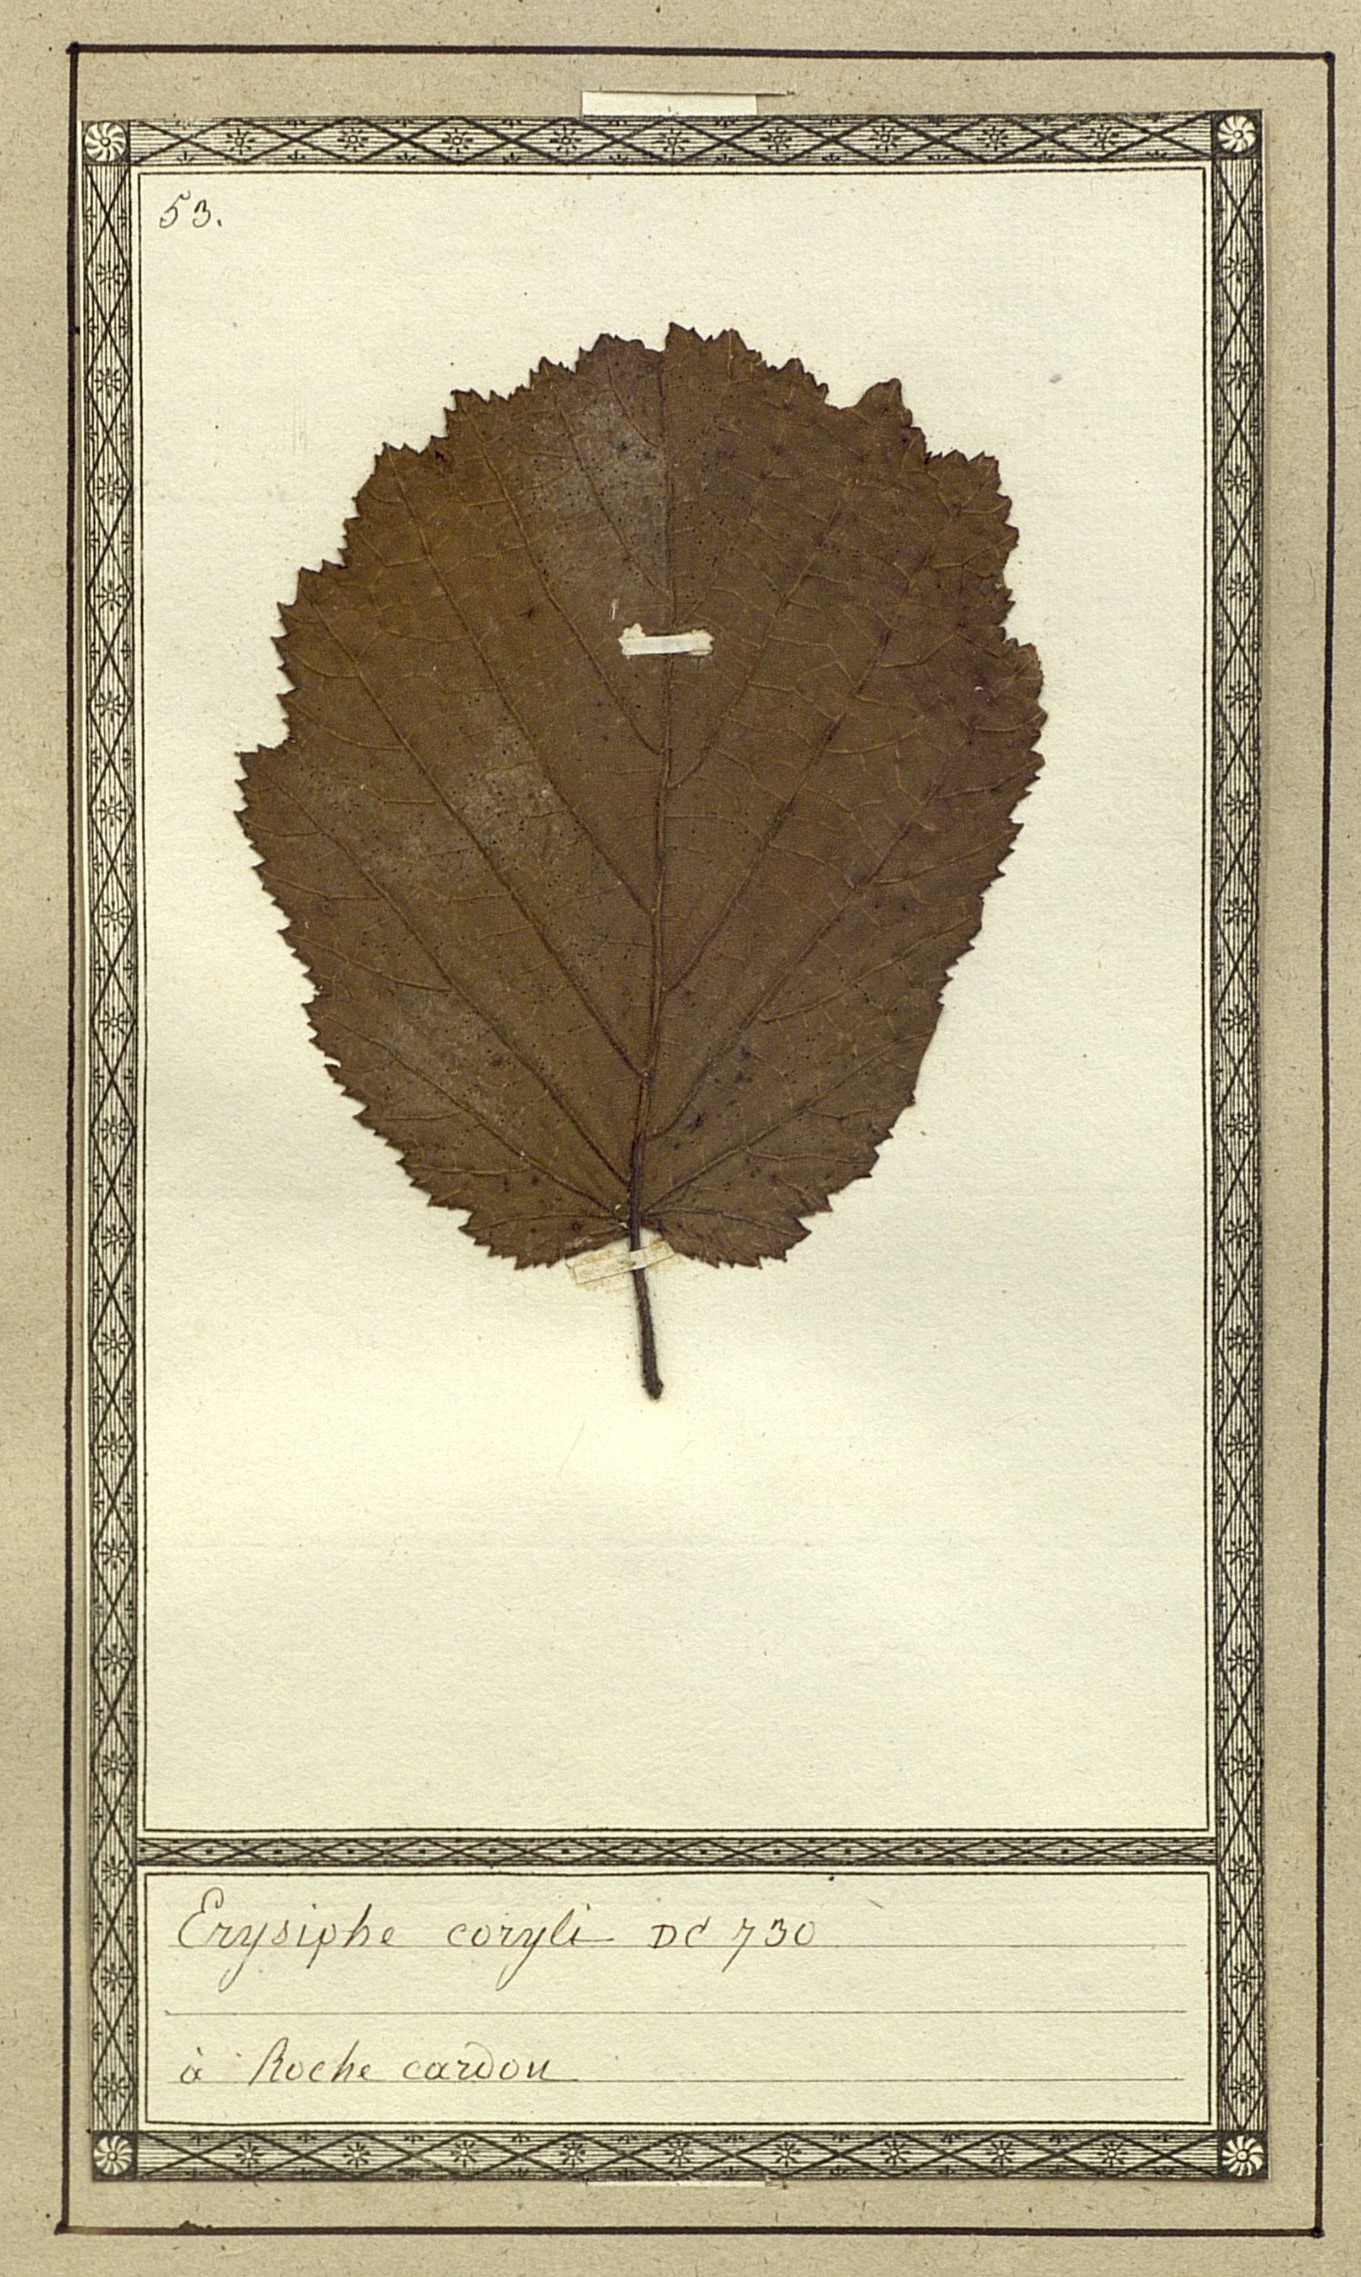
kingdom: Fungi
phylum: Ascomycota
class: Leotiomycetes
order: Helotiales
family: Erysiphaceae
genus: Phyllactinia
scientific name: Phyllactinia guttata
